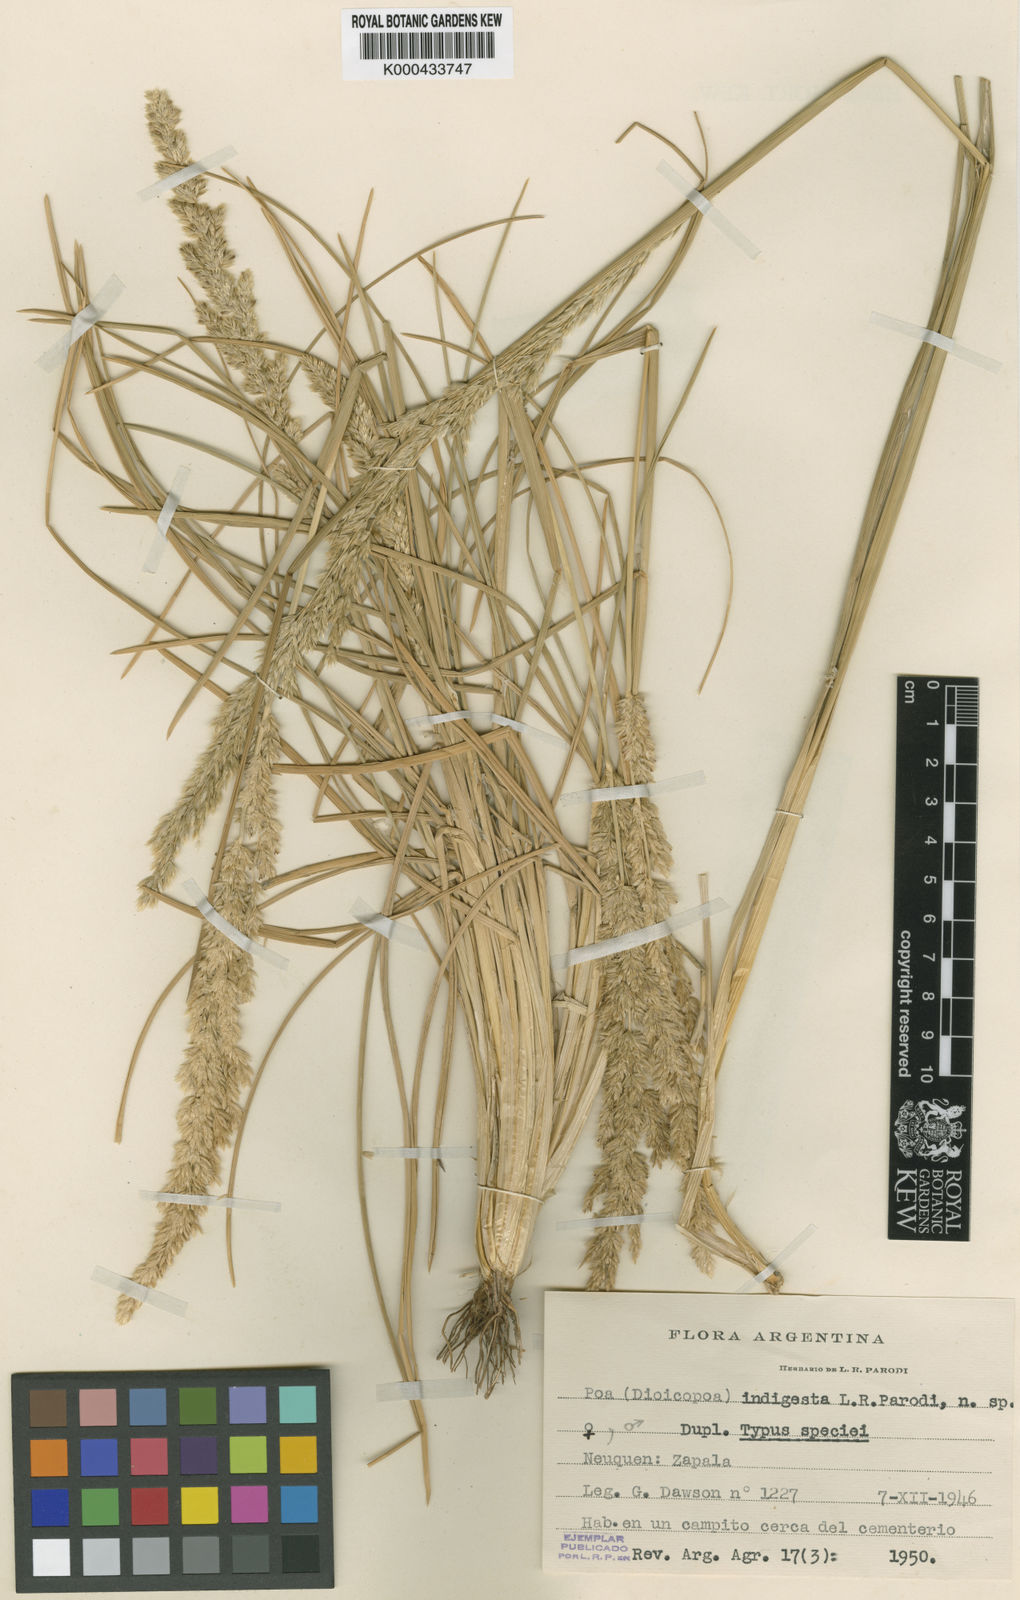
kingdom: Plantae
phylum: Tracheophyta
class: Liliopsida
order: Poales
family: Poaceae
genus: Poa
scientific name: Poa huecu
